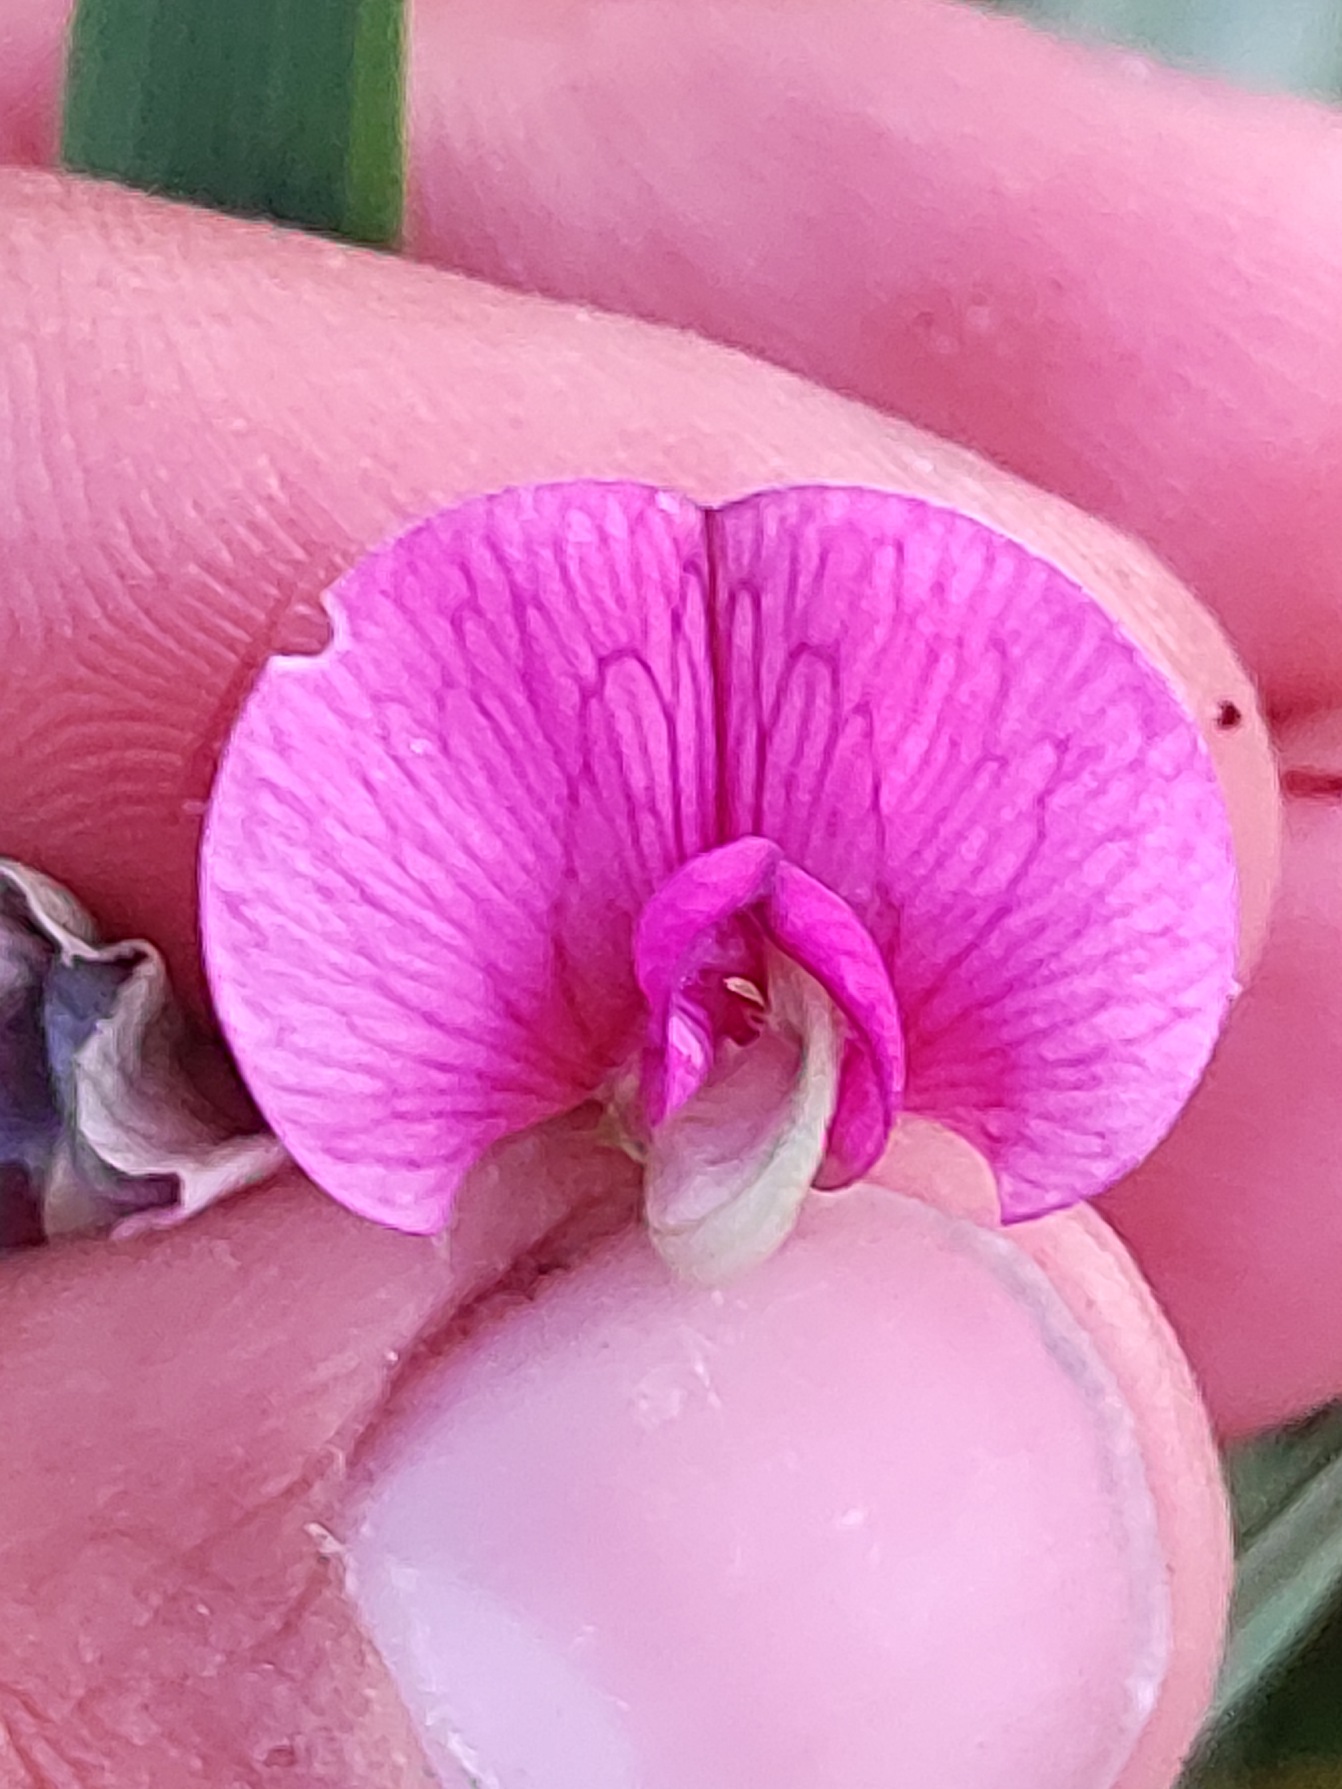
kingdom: Plantae
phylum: Tracheophyta
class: Magnoliopsida
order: Fabales
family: Fabaceae
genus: Lathyrus
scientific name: Lathyrus sylvestris
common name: Skov-fladbælg
